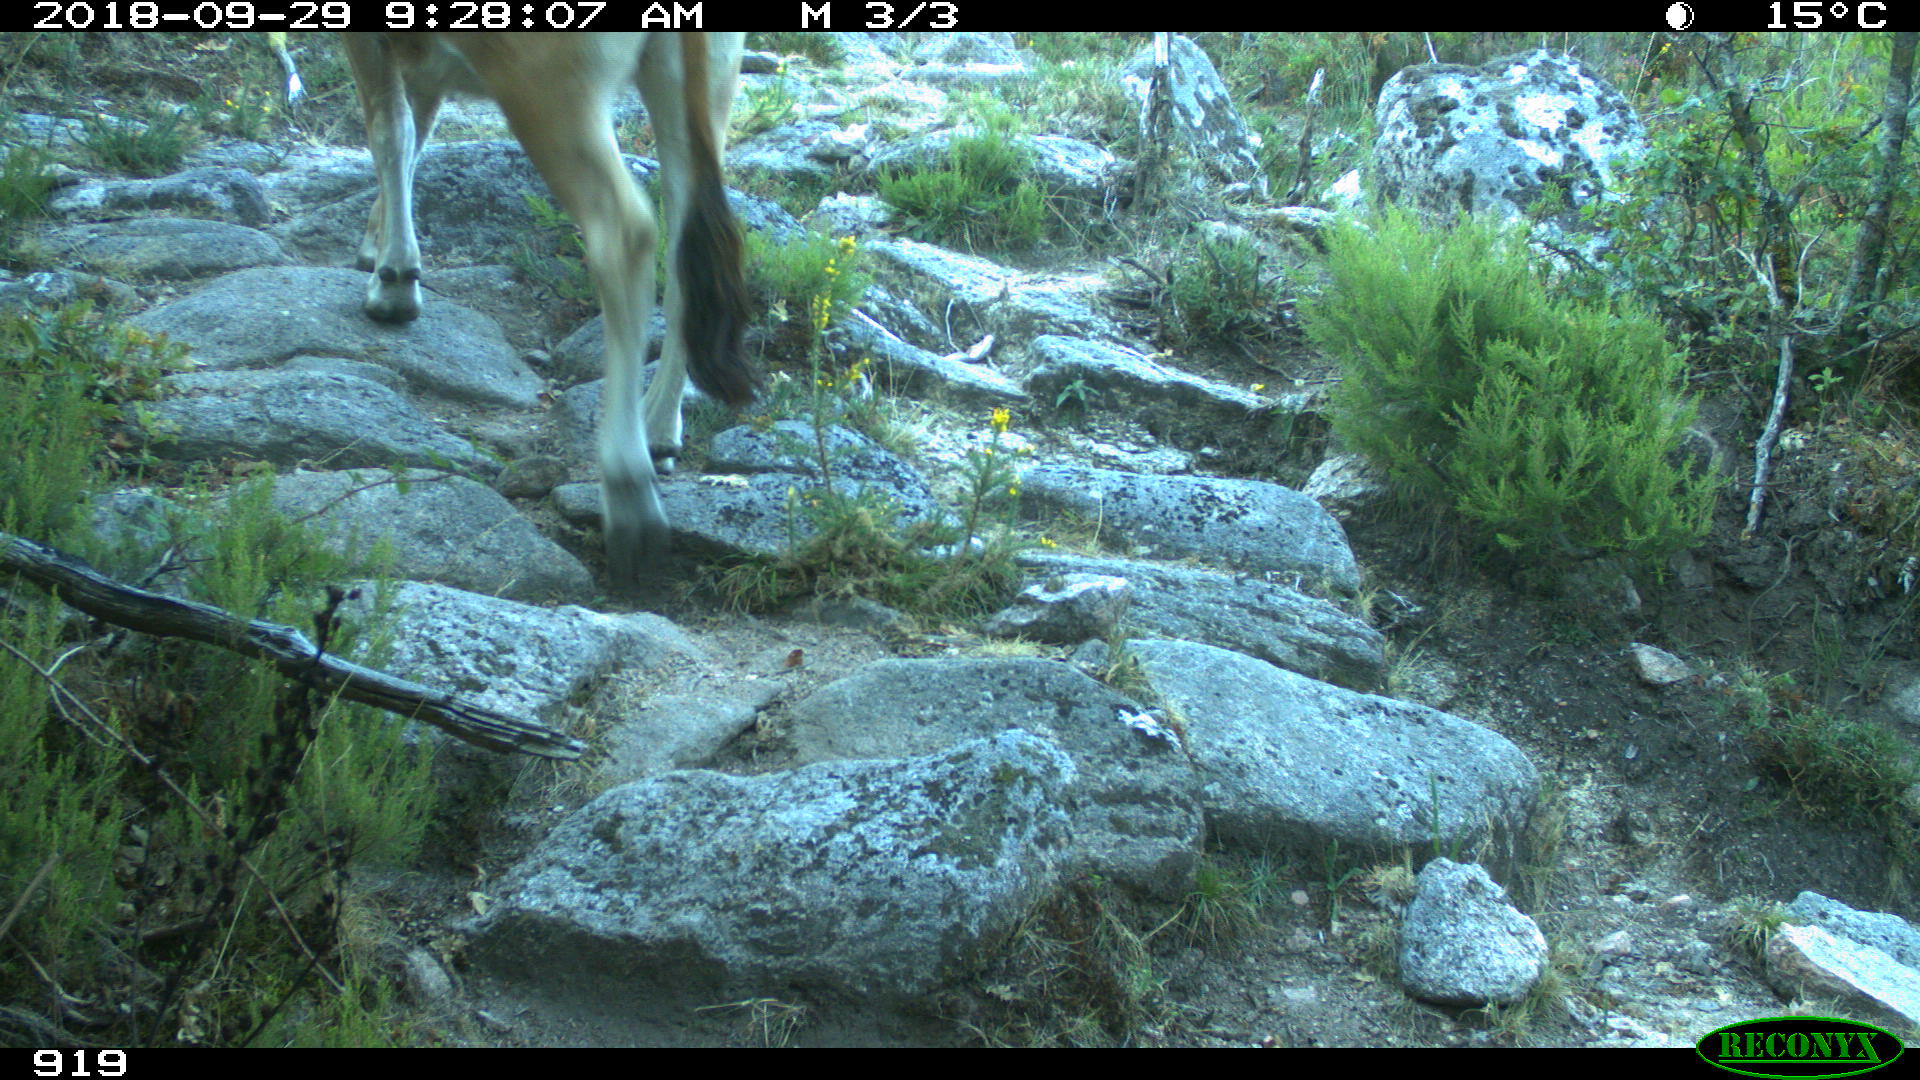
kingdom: Animalia
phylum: Chordata
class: Mammalia
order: Artiodactyla
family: Bovidae
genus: Bos
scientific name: Bos taurus
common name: Domesticated cattle
